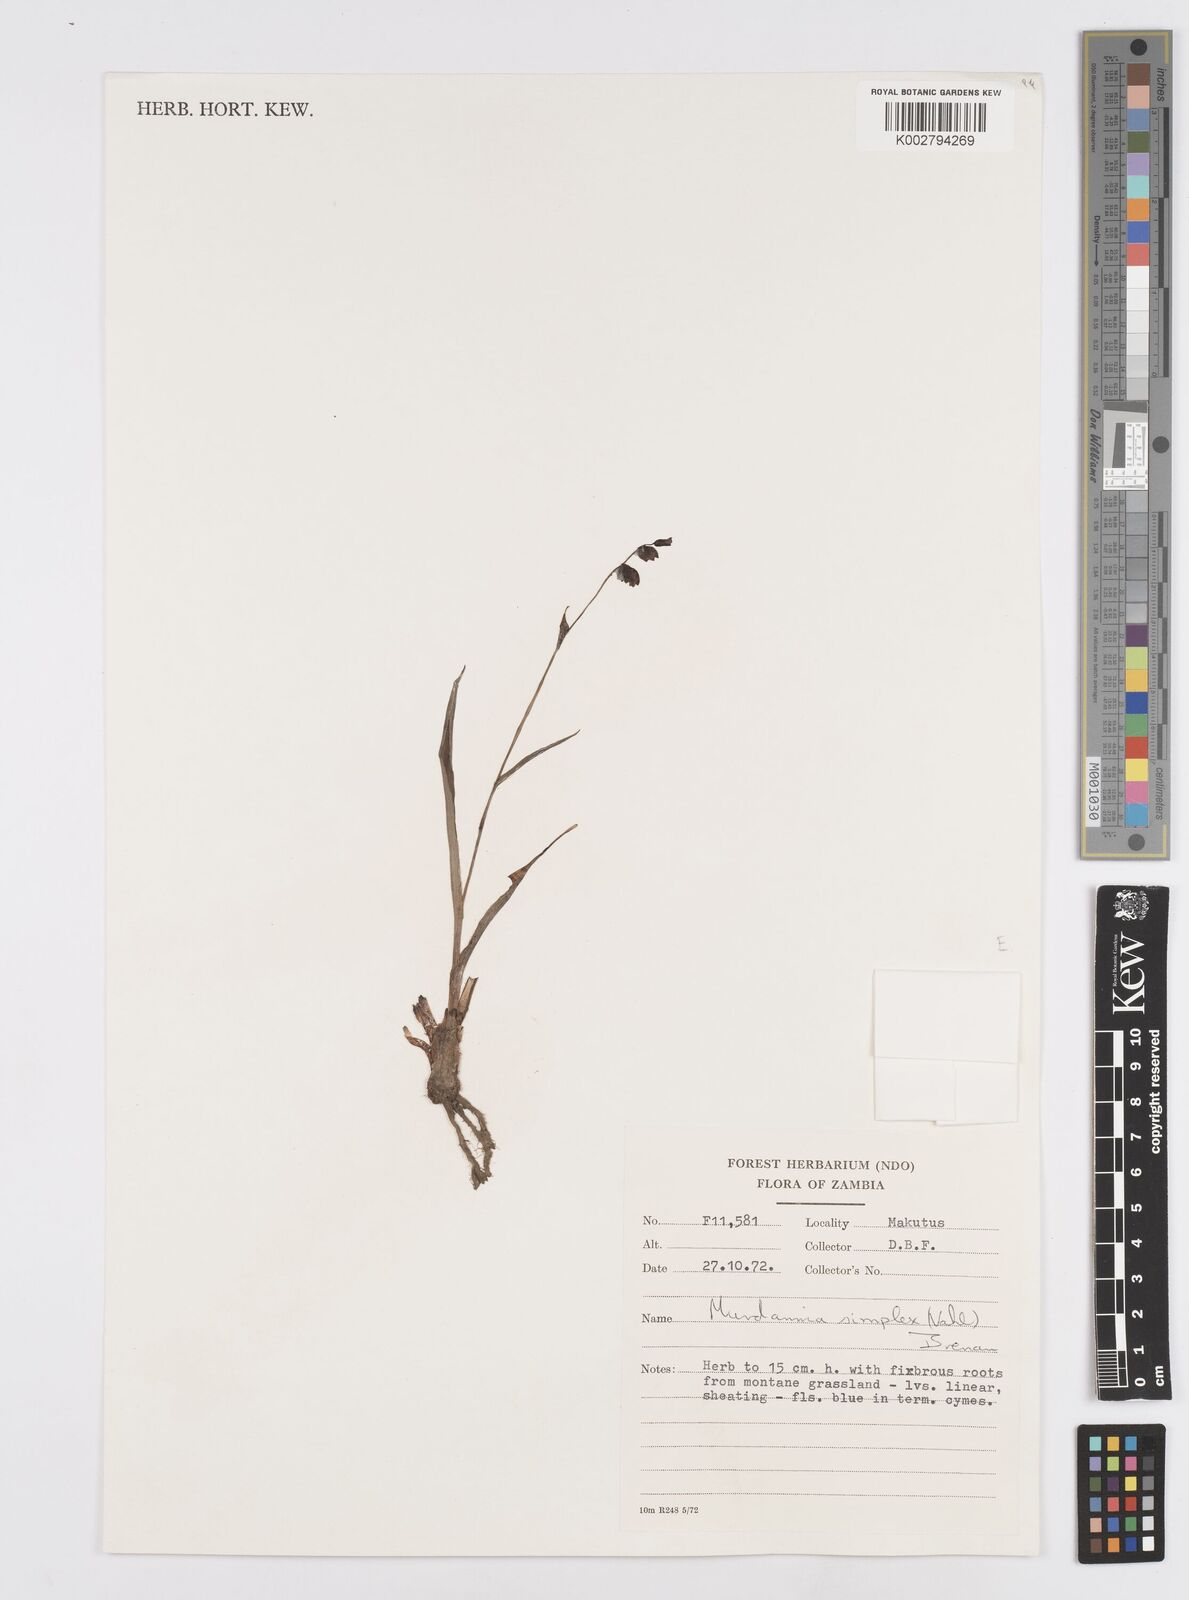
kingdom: Plantae
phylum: Tracheophyta
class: Liliopsida
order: Commelinales
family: Commelinaceae
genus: Murdannia
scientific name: Murdannia simplex
